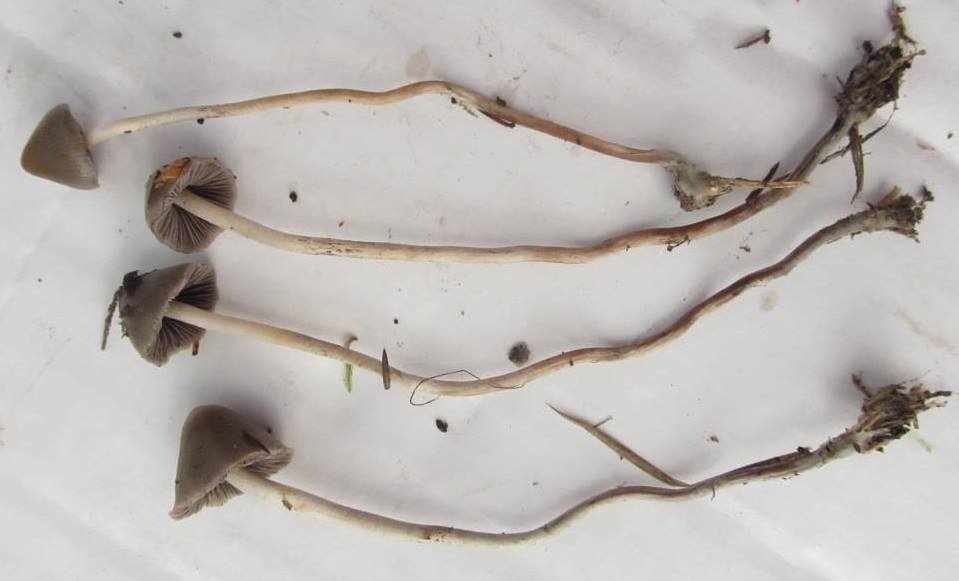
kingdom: Fungi
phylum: Basidiomycota
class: Agaricomycetes
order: Agaricales
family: Hymenogastraceae
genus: Psilocybe
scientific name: Psilocybe semilanceata
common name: spids nøgenhat
